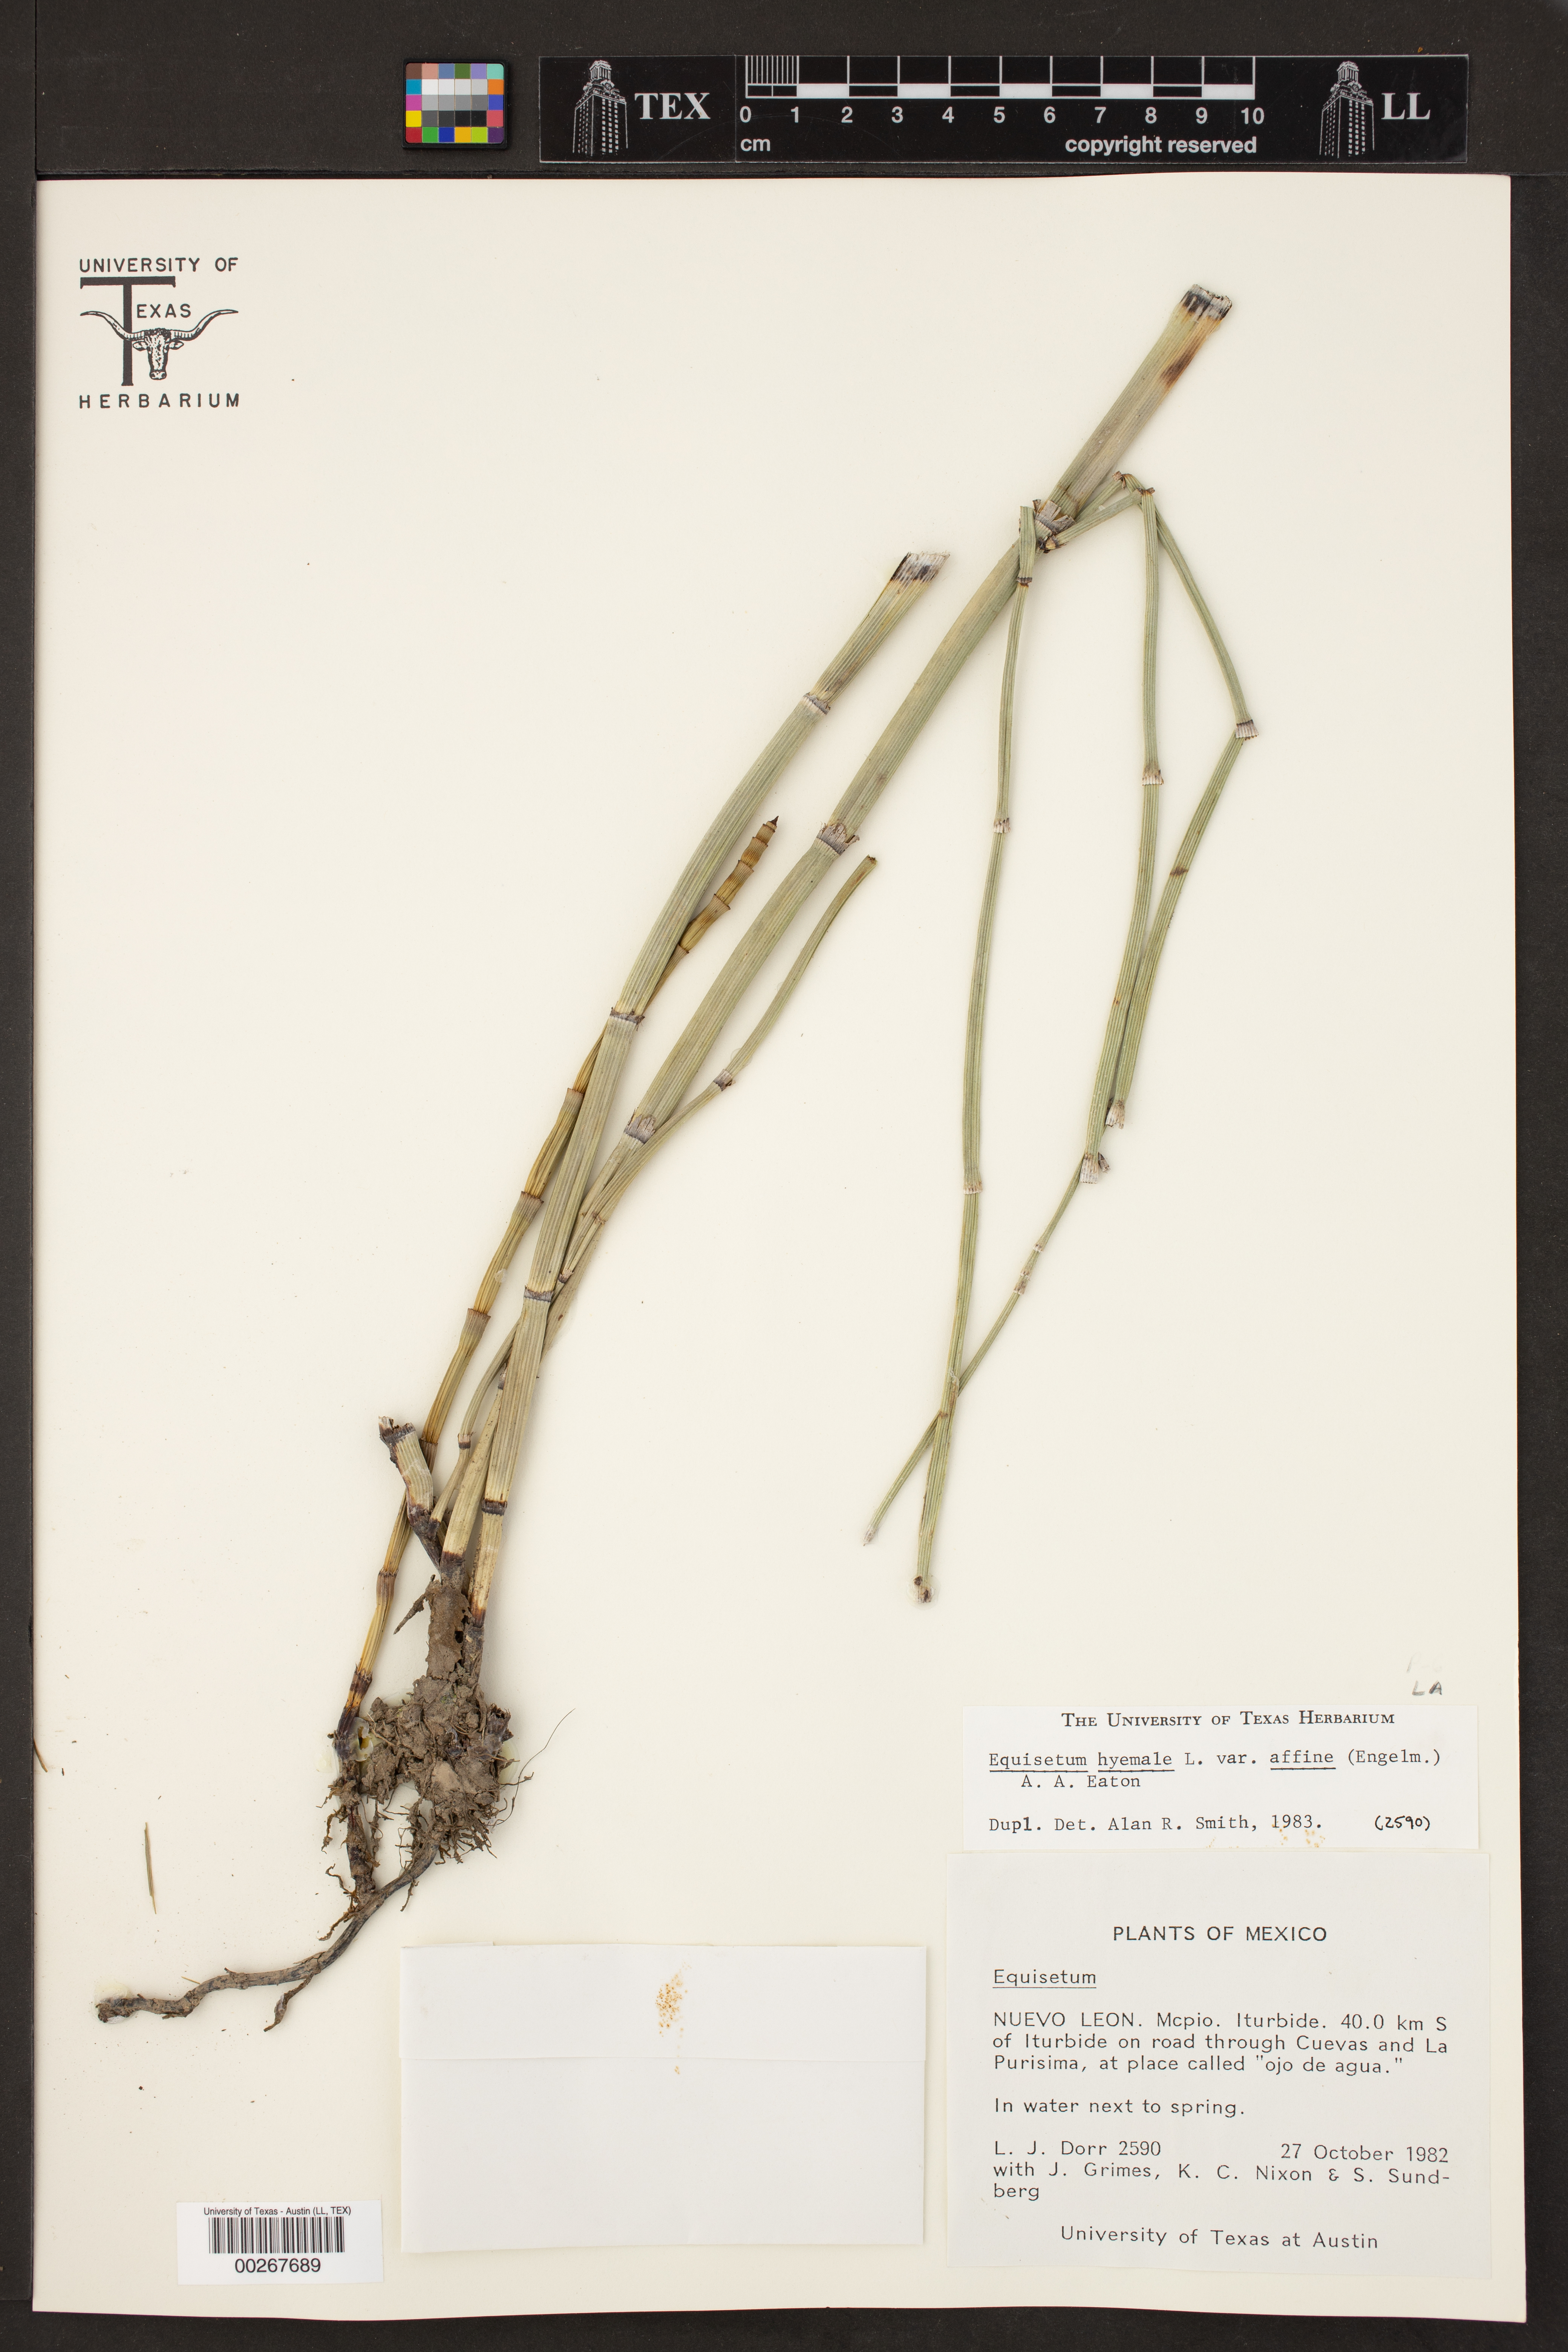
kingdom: Plantae
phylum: Tracheophyta
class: Polypodiopsida
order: Equisetales
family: Equisetaceae
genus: Equisetum
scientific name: Equisetum praealtum
